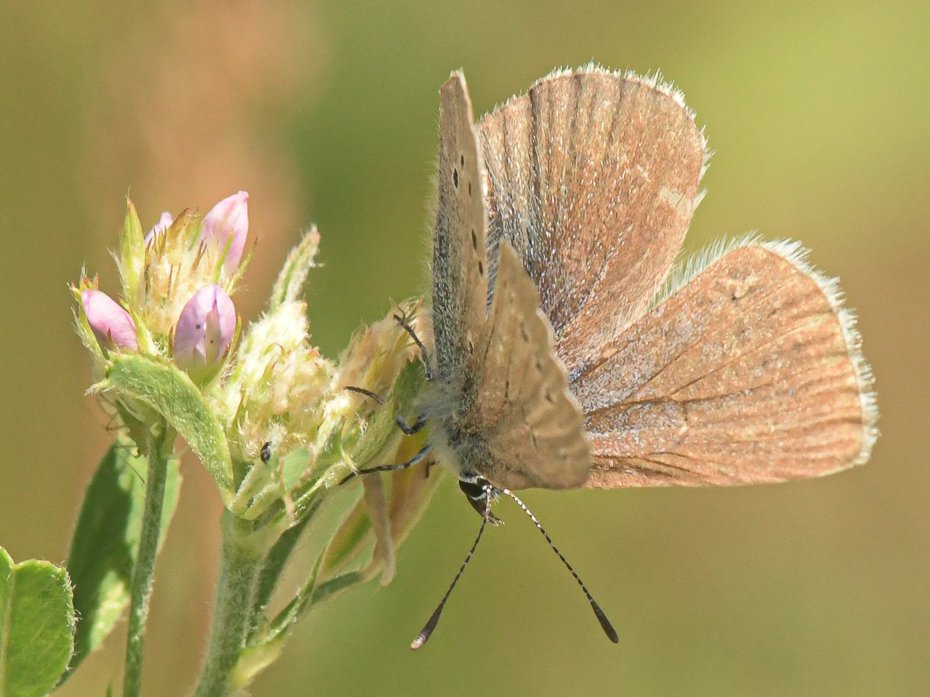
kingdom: Animalia
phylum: Arthropoda
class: Insecta
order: Lepidoptera
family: Lycaenidae
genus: Glaucopsyche
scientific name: Glaucopsyche lygdamus
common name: Silvery Blue
